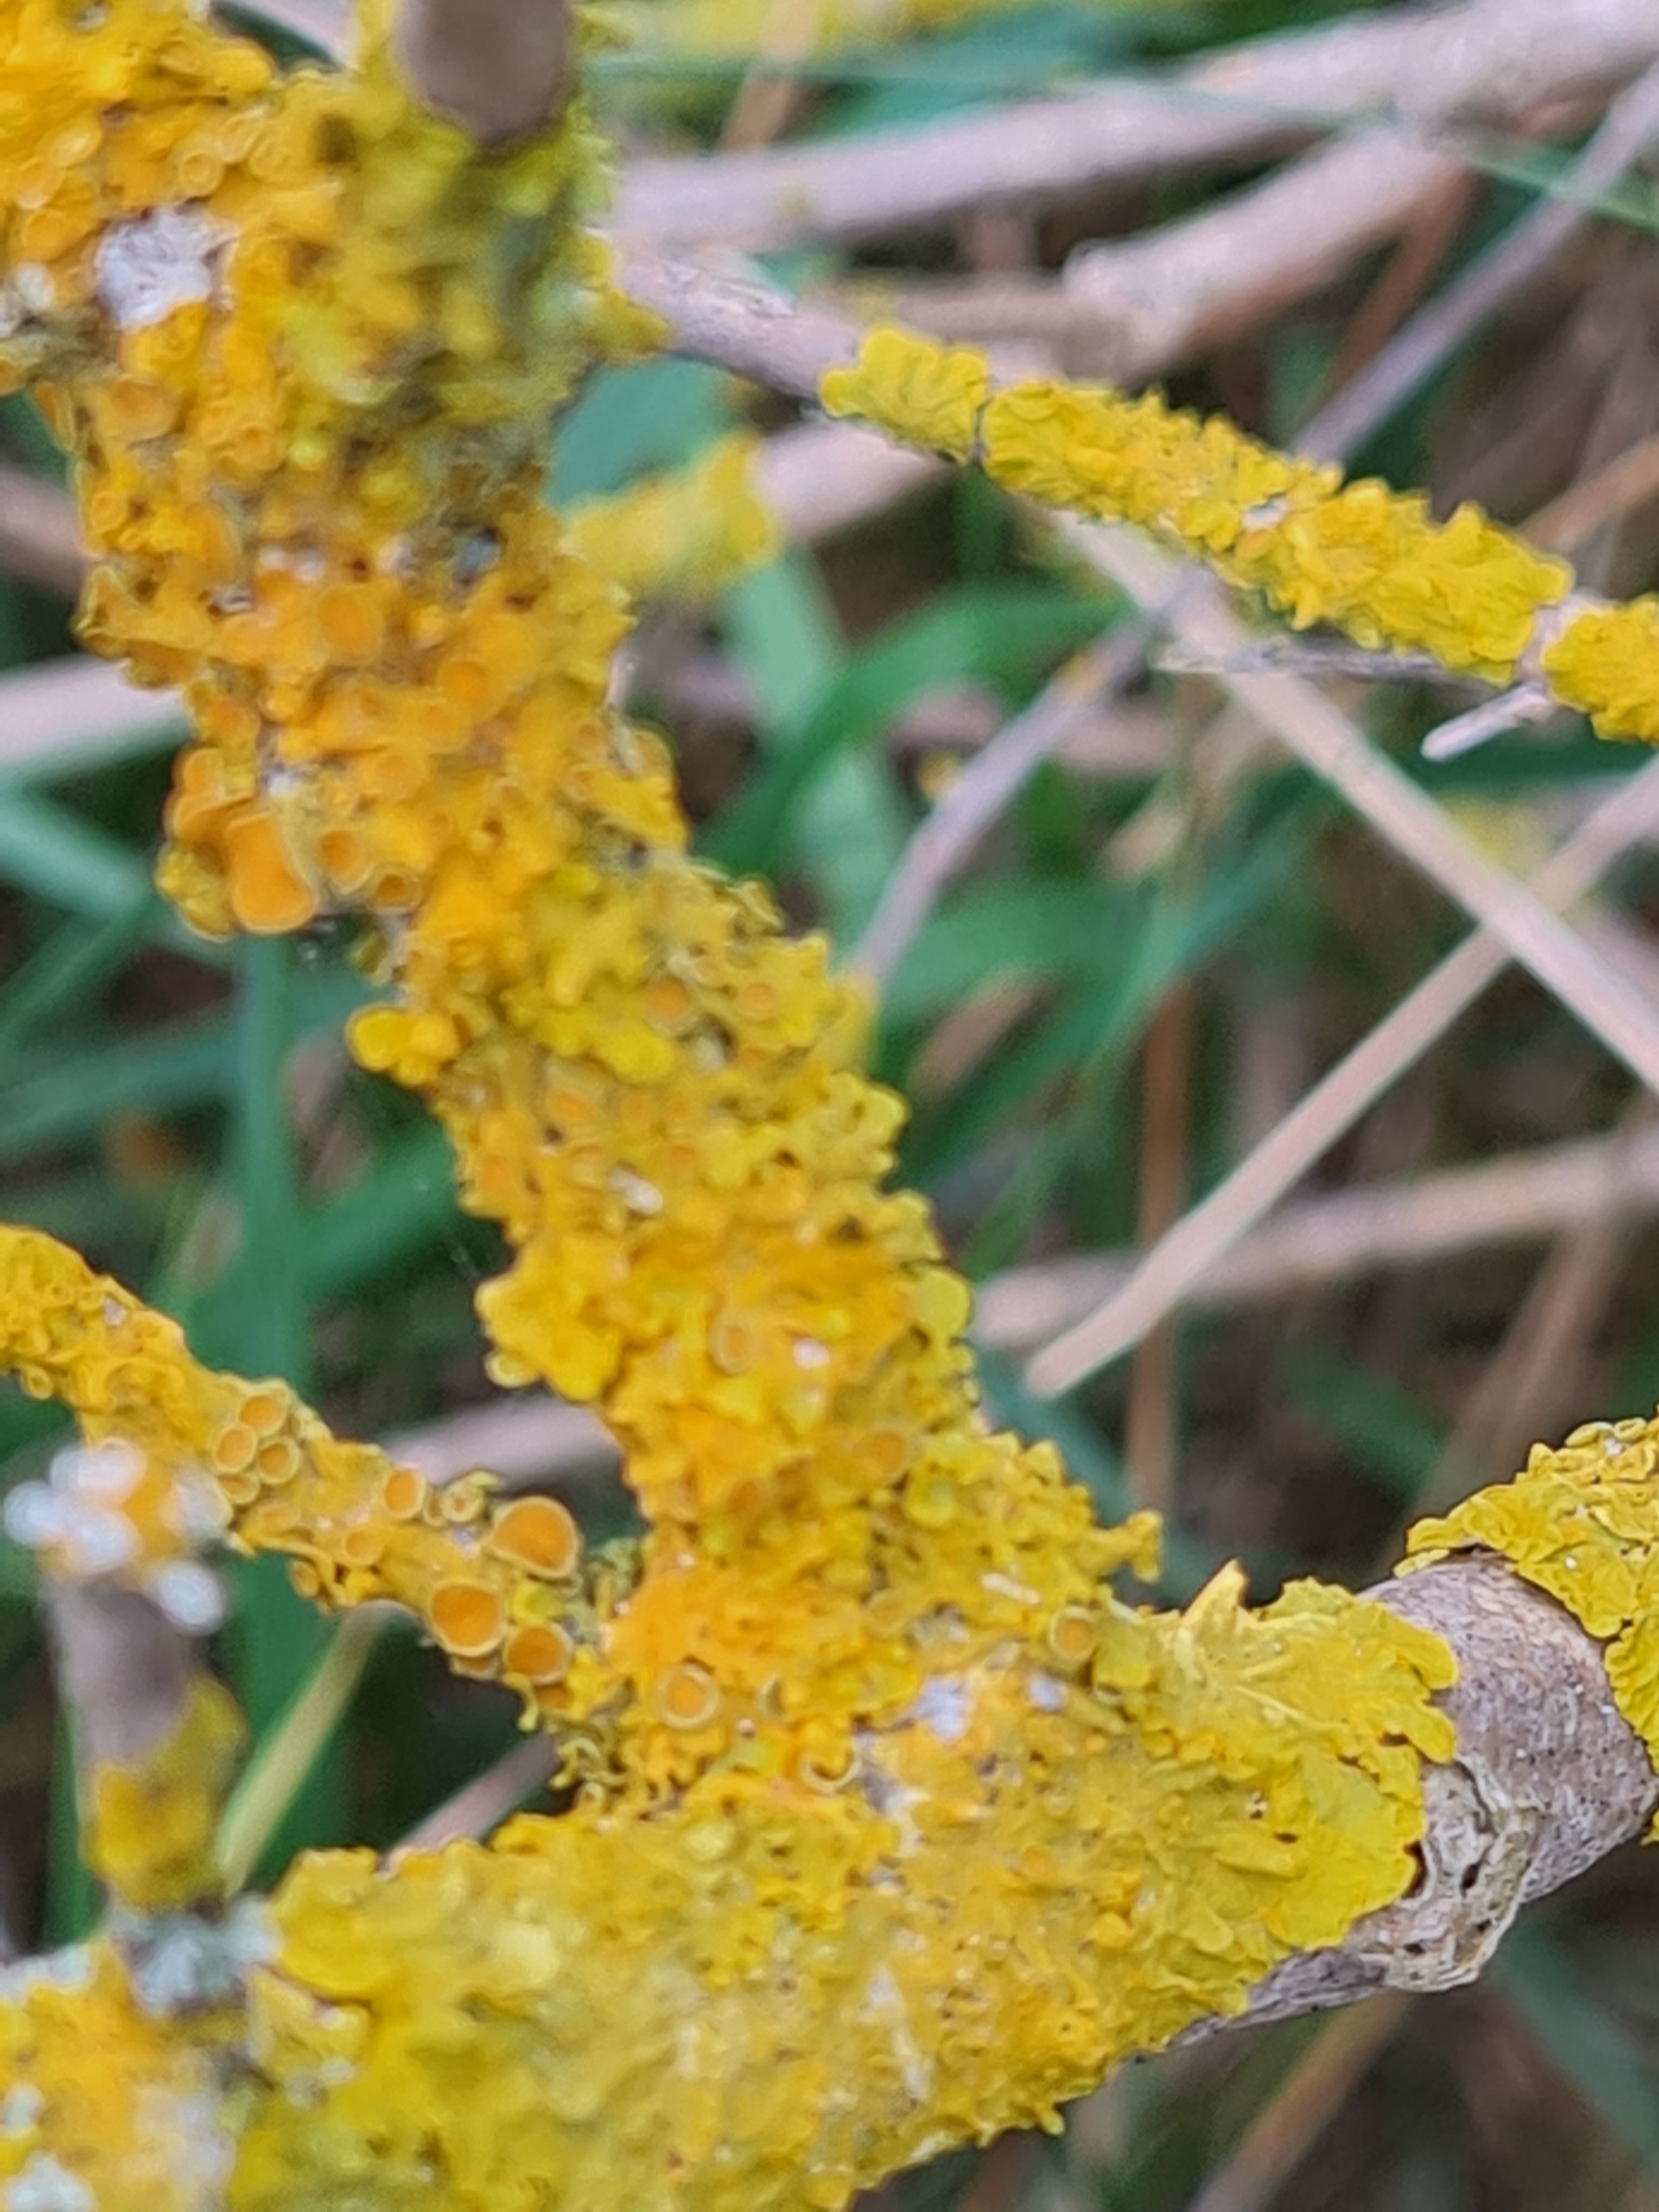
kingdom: Fungi
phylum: Ascomycota
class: Lecanoromycetes
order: Teloschistales
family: Teloschistaceae
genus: Xanthoria
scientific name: Xanthoria parietina
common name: Almindelig væggelav
